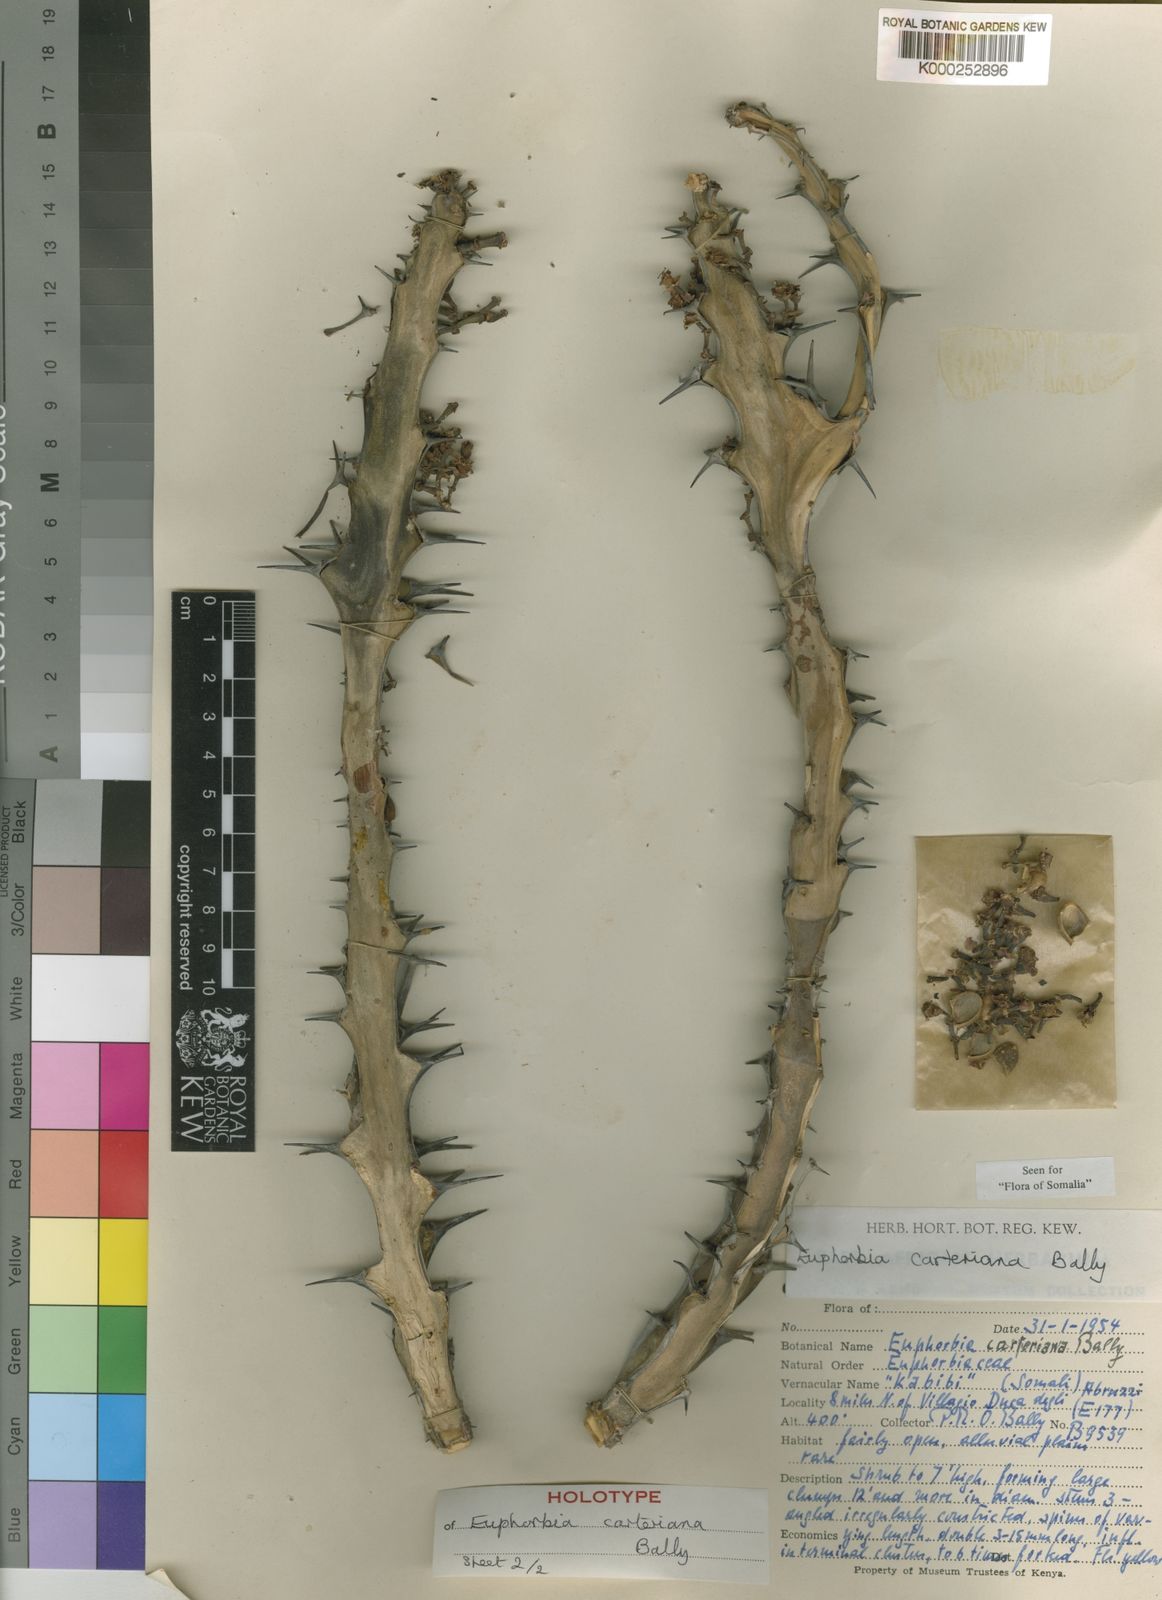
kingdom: Plantae
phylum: Tracheophyta
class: Magnoliopsida
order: Malpighiales
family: Euphorbiaceae
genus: Euphorbia
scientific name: Euphorbia carteriana
